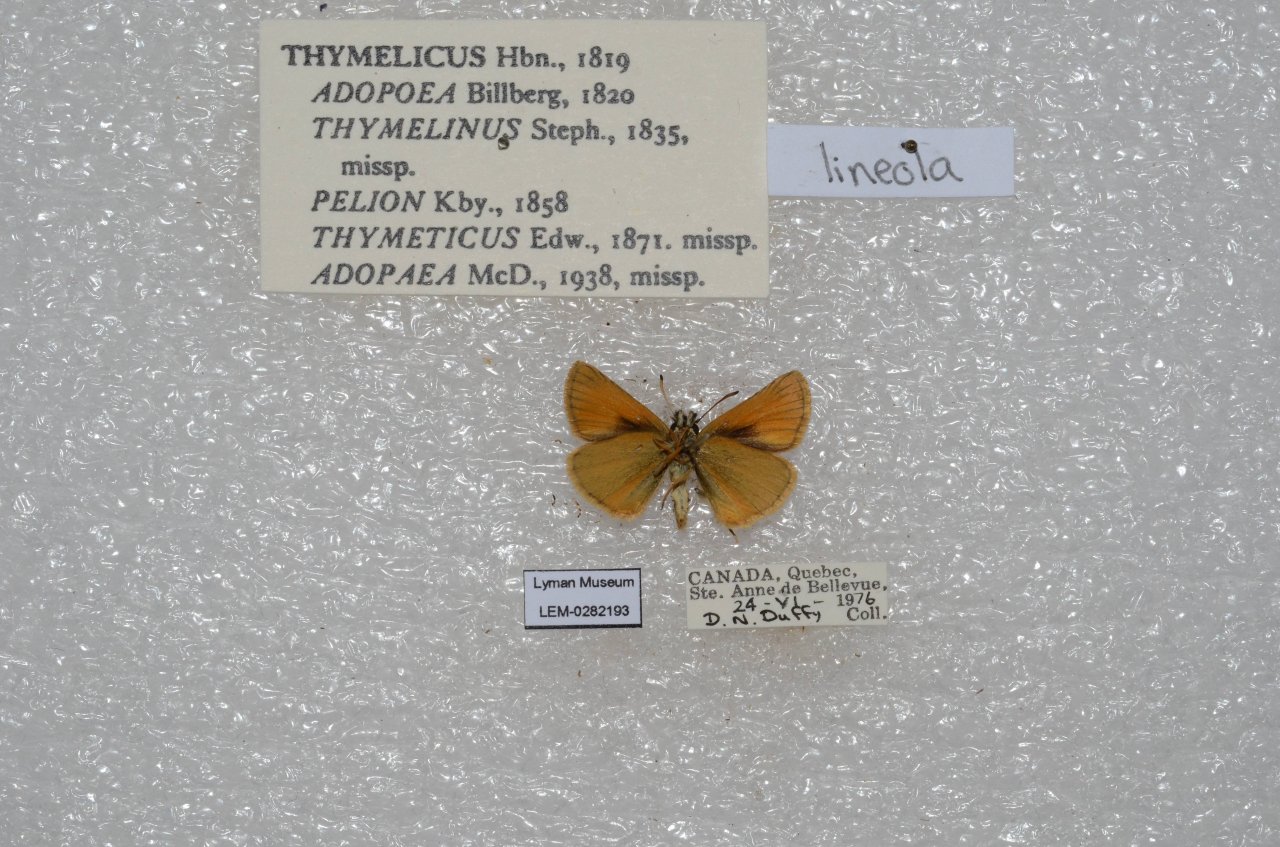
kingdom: Animalia
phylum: Arthropoda
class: Insecta
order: Lepidoptera
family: Hesperiidae
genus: Thymelicus
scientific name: Thymelicus lineola
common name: European Skipper
